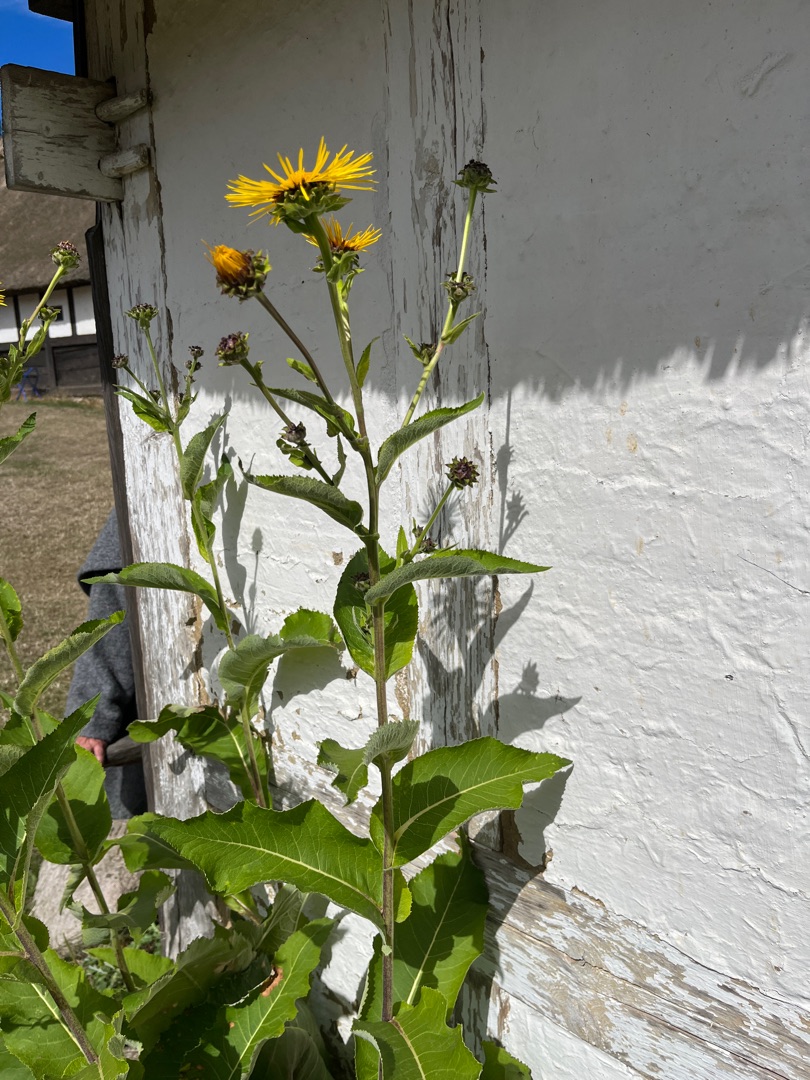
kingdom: Plantae
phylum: Tracheophyta
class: Magnoliopsida
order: Asterales
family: Asteraceae
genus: Inula
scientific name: Inula helenium
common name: Læge-alant
